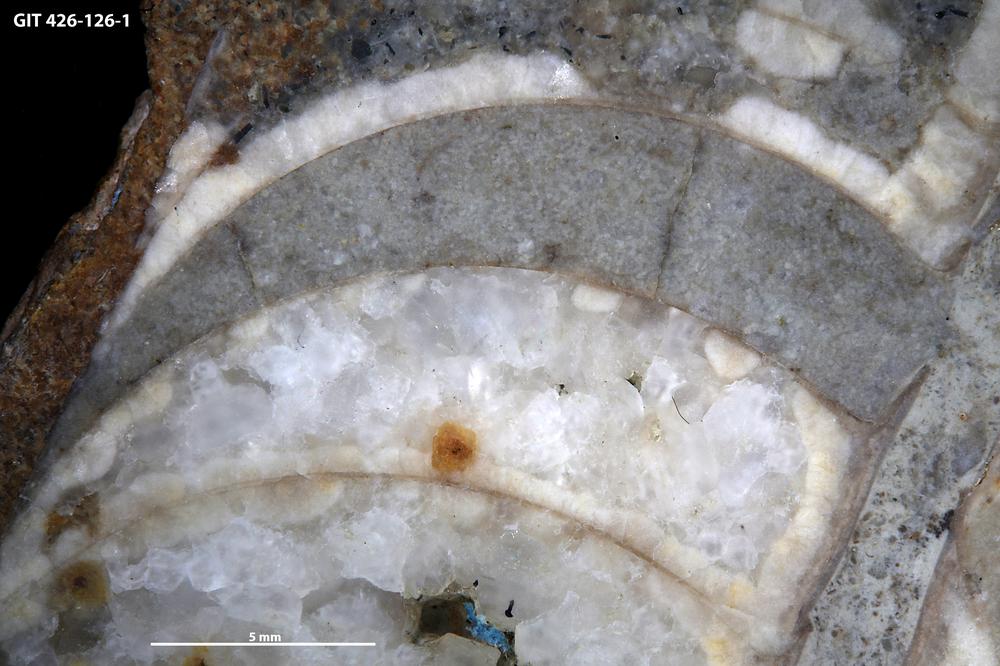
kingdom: Animalia
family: Coprulidae
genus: Coprulus
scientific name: Coprulus
